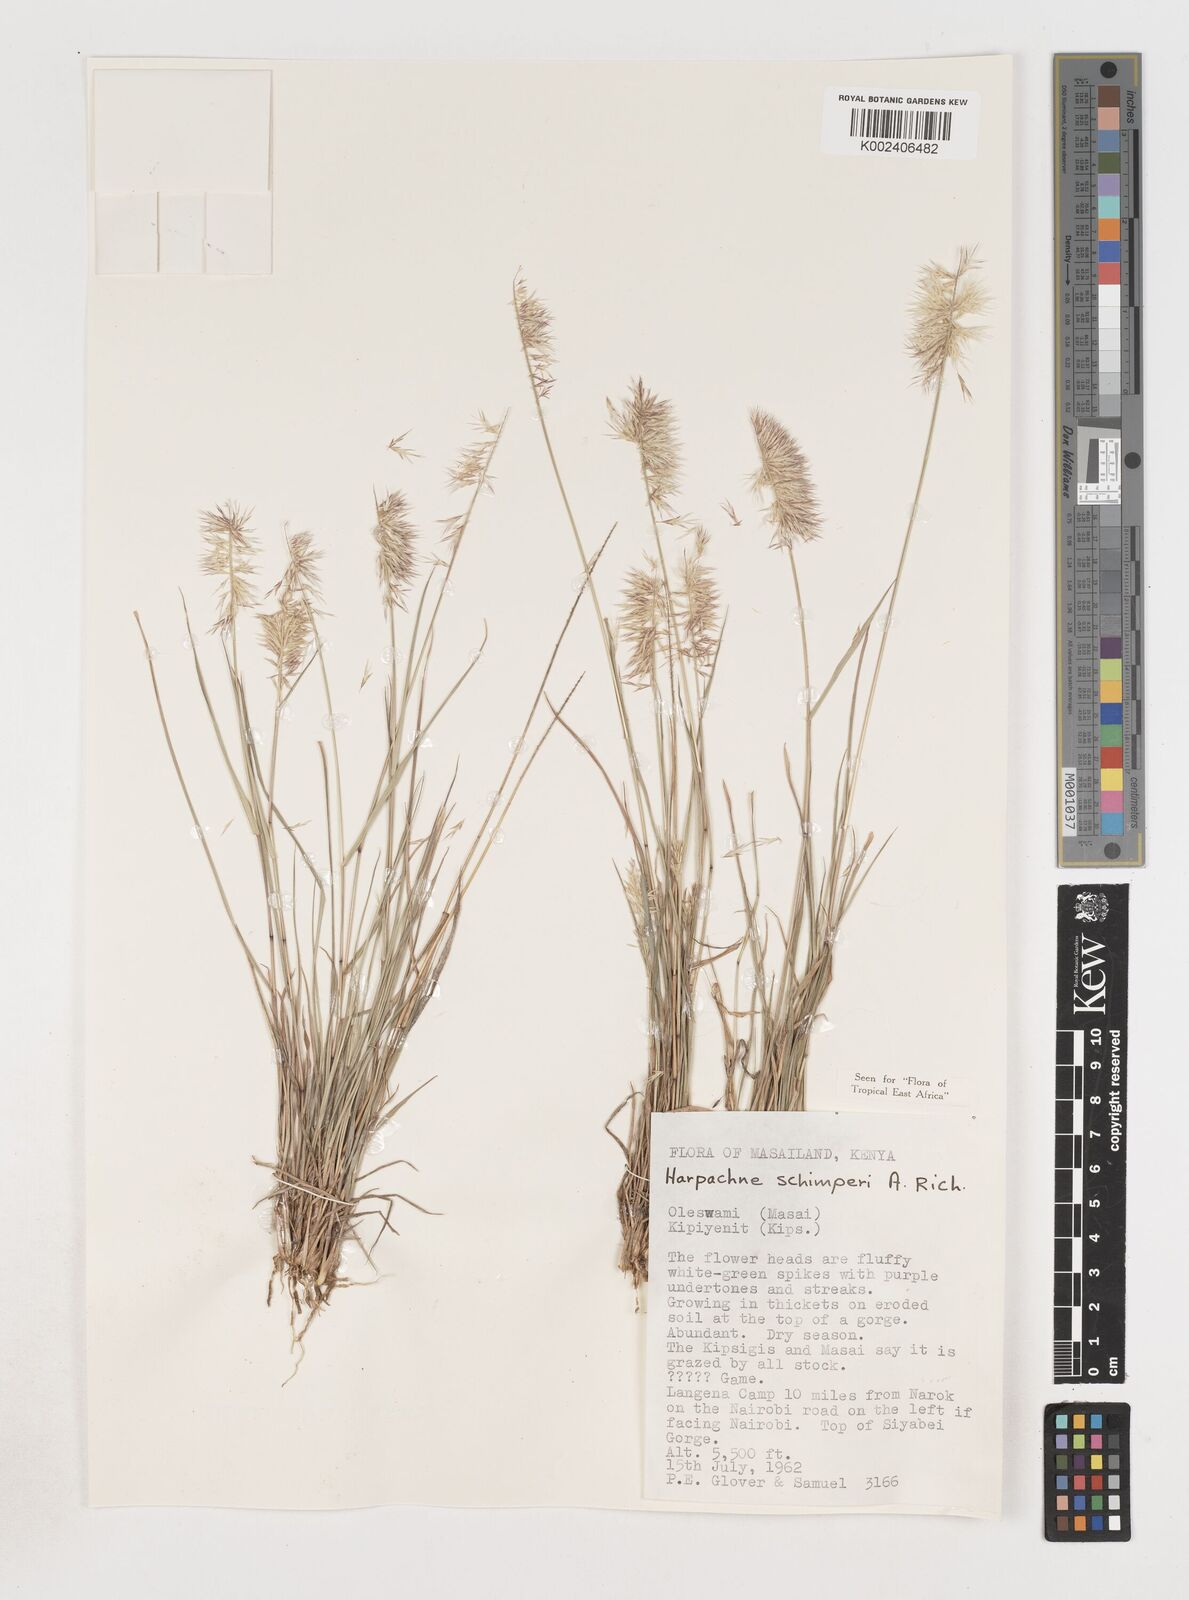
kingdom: Plantae
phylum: Tracheophyta
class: Liliopsida
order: Poales
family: Poaceae
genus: Harpachne
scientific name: Harpachne schimperi
